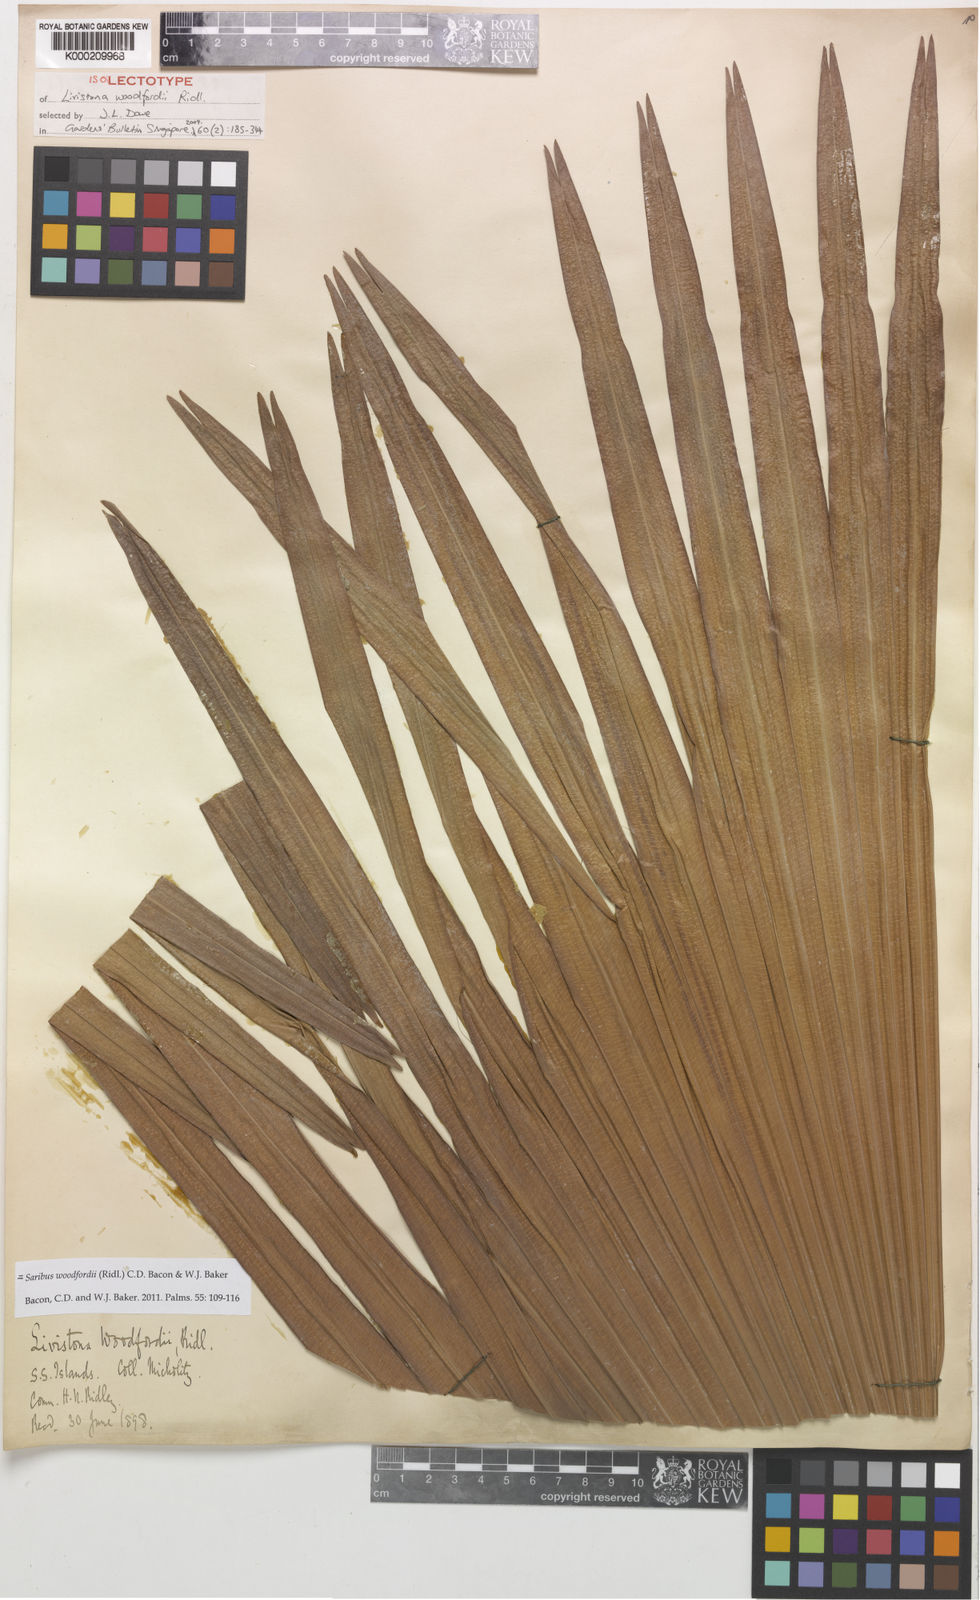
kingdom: Plantae
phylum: Tracheophyta
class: Liliopsida
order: Arecales
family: Arecaceae
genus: Saribus
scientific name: Saribus woodfordii
